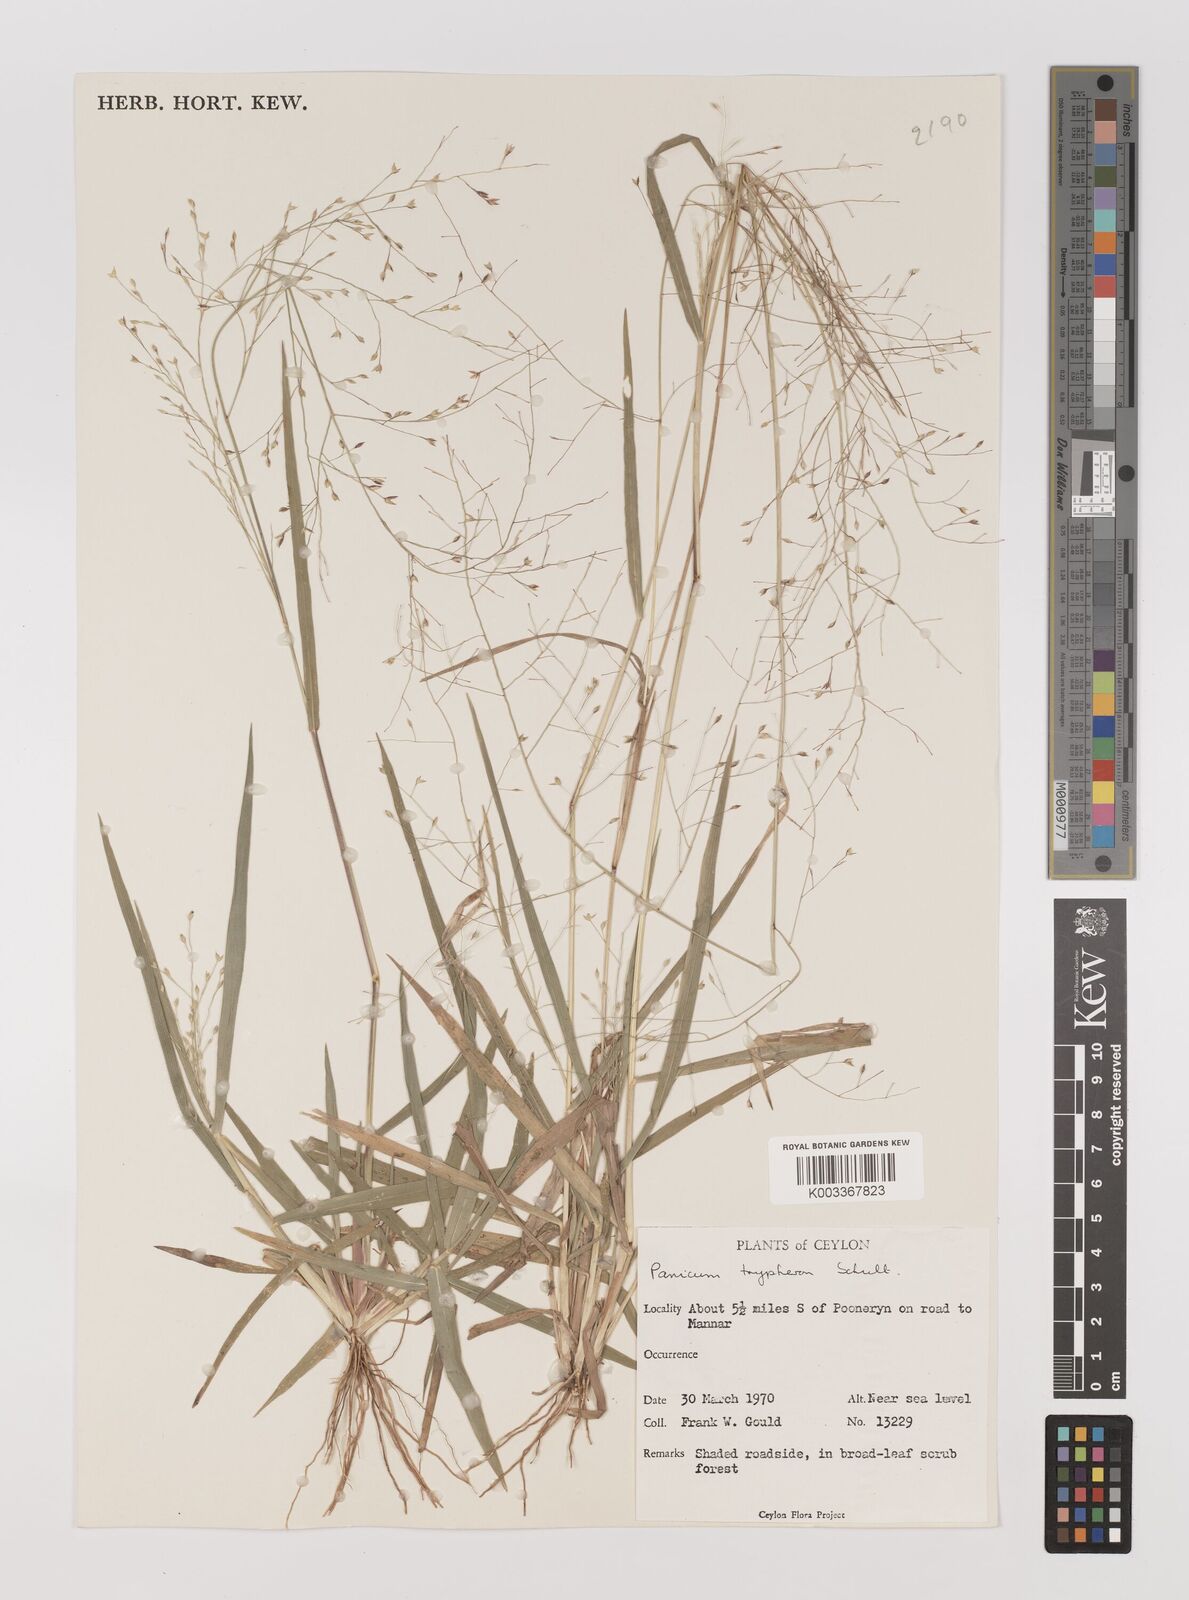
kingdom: Plantae
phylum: Tracheophyta
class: Liliopsida
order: Poales
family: Poaceae
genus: Panicum
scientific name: Panicum curviflorum
